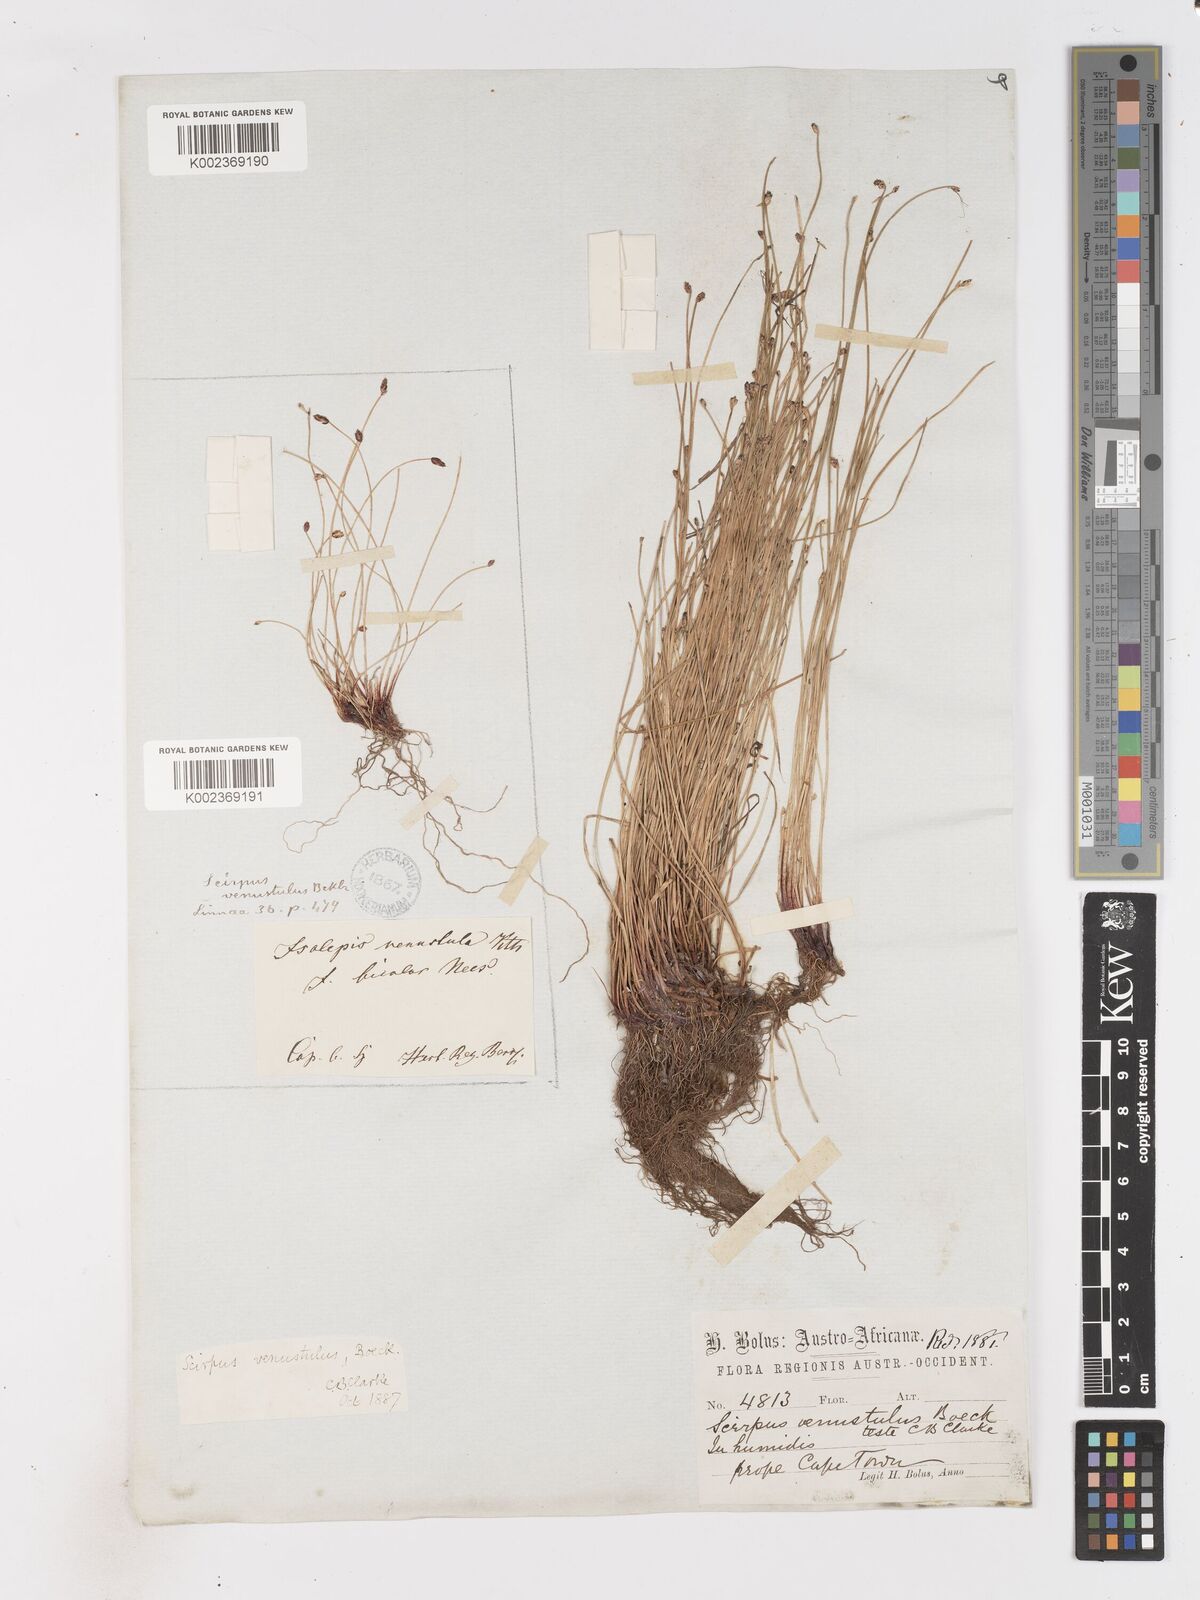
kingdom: Plantae
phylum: Tracheophyta
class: Liliopsida
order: Poales
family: Cyperaceae
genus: Isolepis
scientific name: Isolepis venustula
